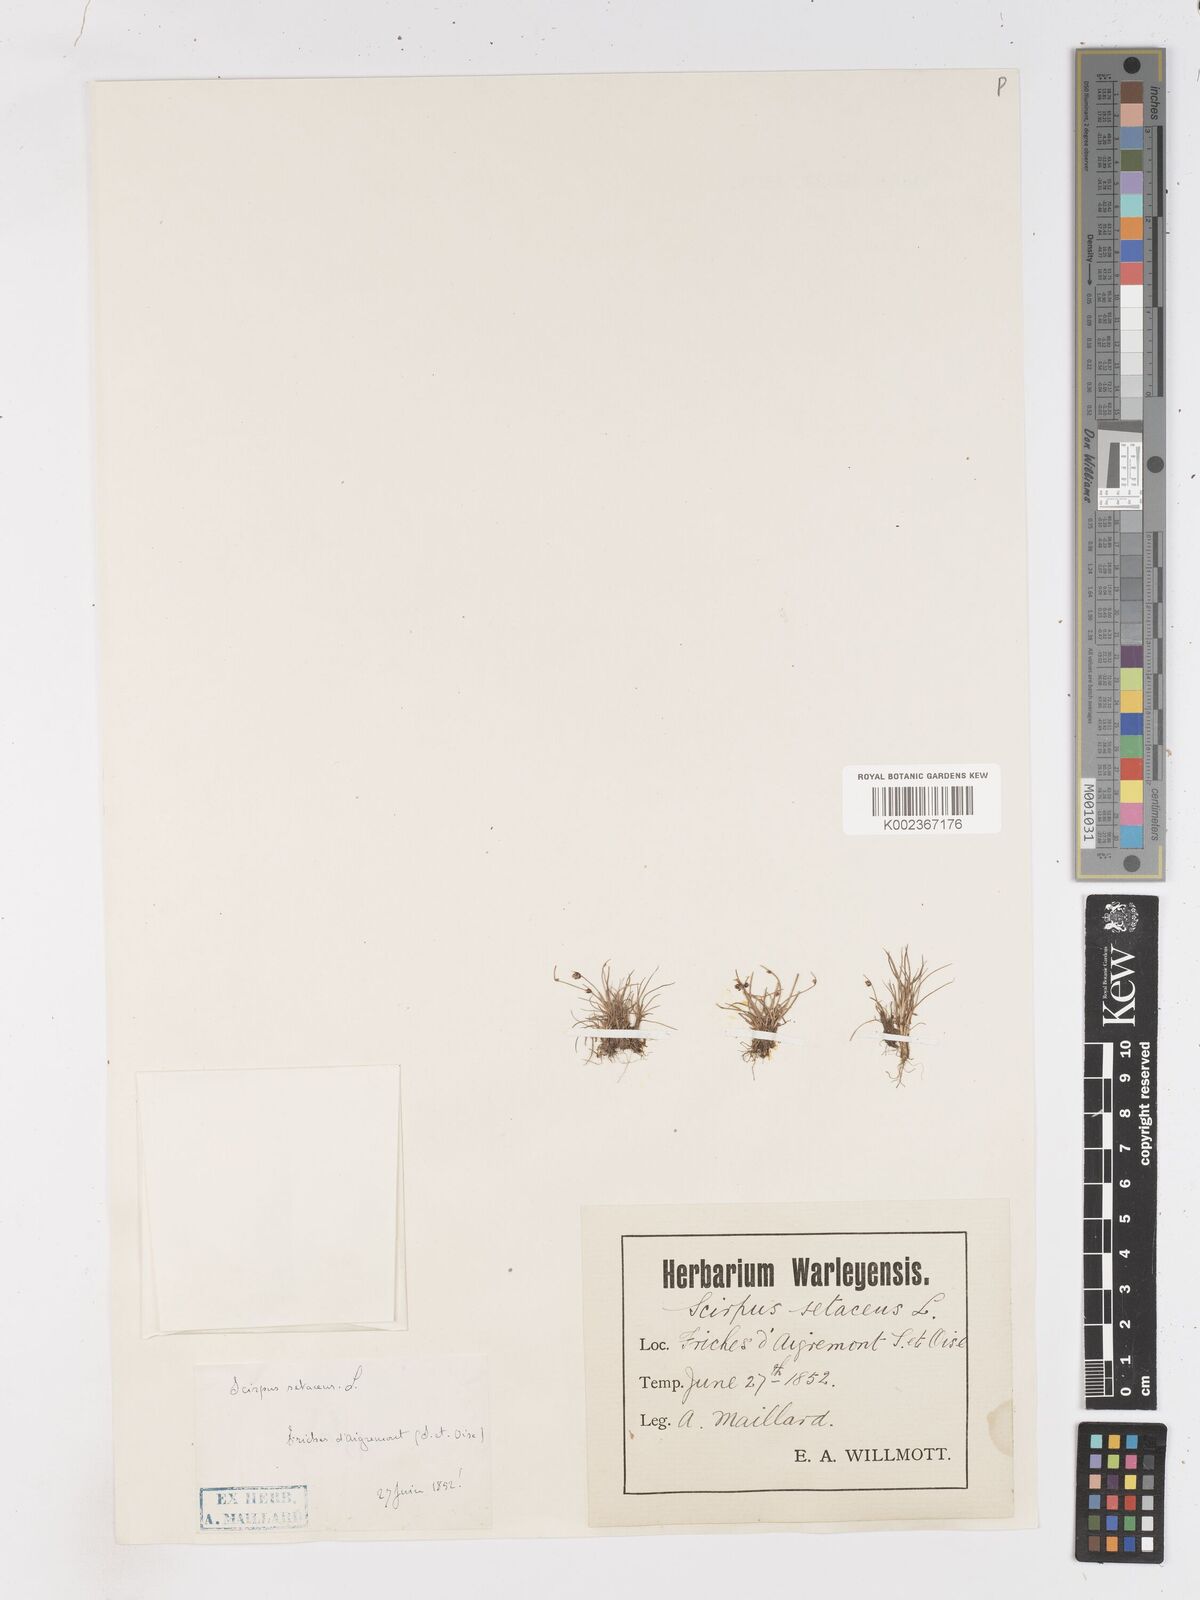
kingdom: Plantae
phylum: Tracheophyta
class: Liliopsida
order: Poales
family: Cyperaceae
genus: Isolepis
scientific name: Isolepis setacea
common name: Bristle club-rush
